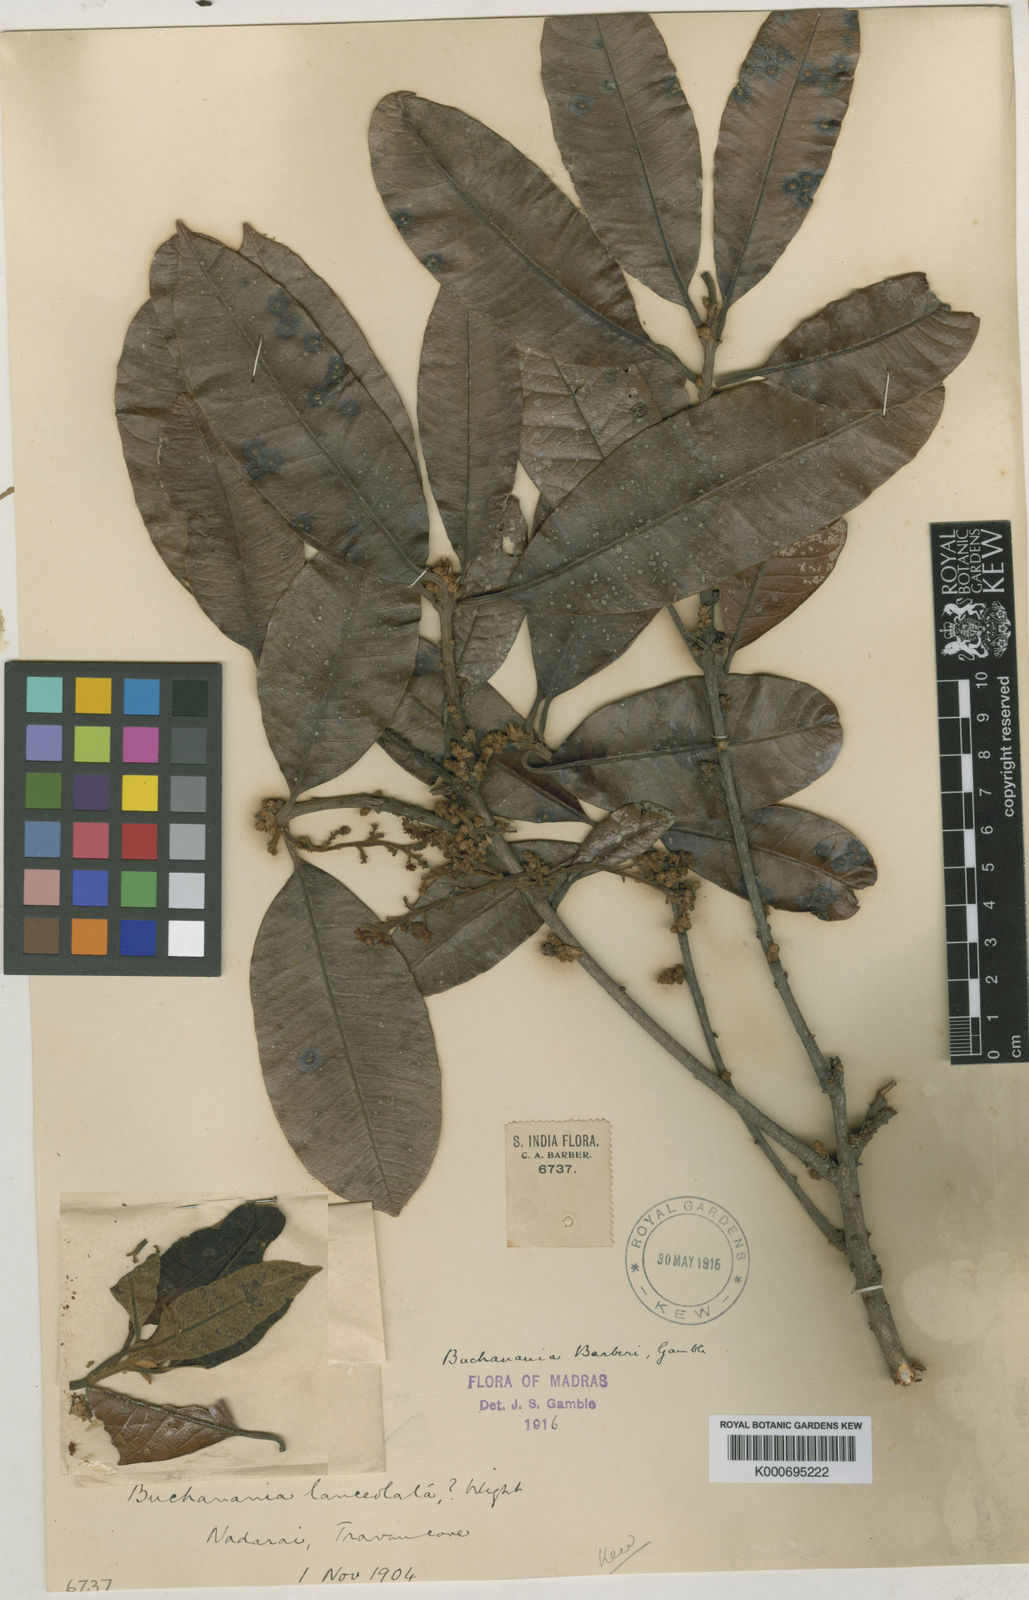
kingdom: Plantae
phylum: Tracheophyta
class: Magnoliopsida
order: Sapindales
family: Anacardiaceae
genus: Buchanania
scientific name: Buchanania barberi
